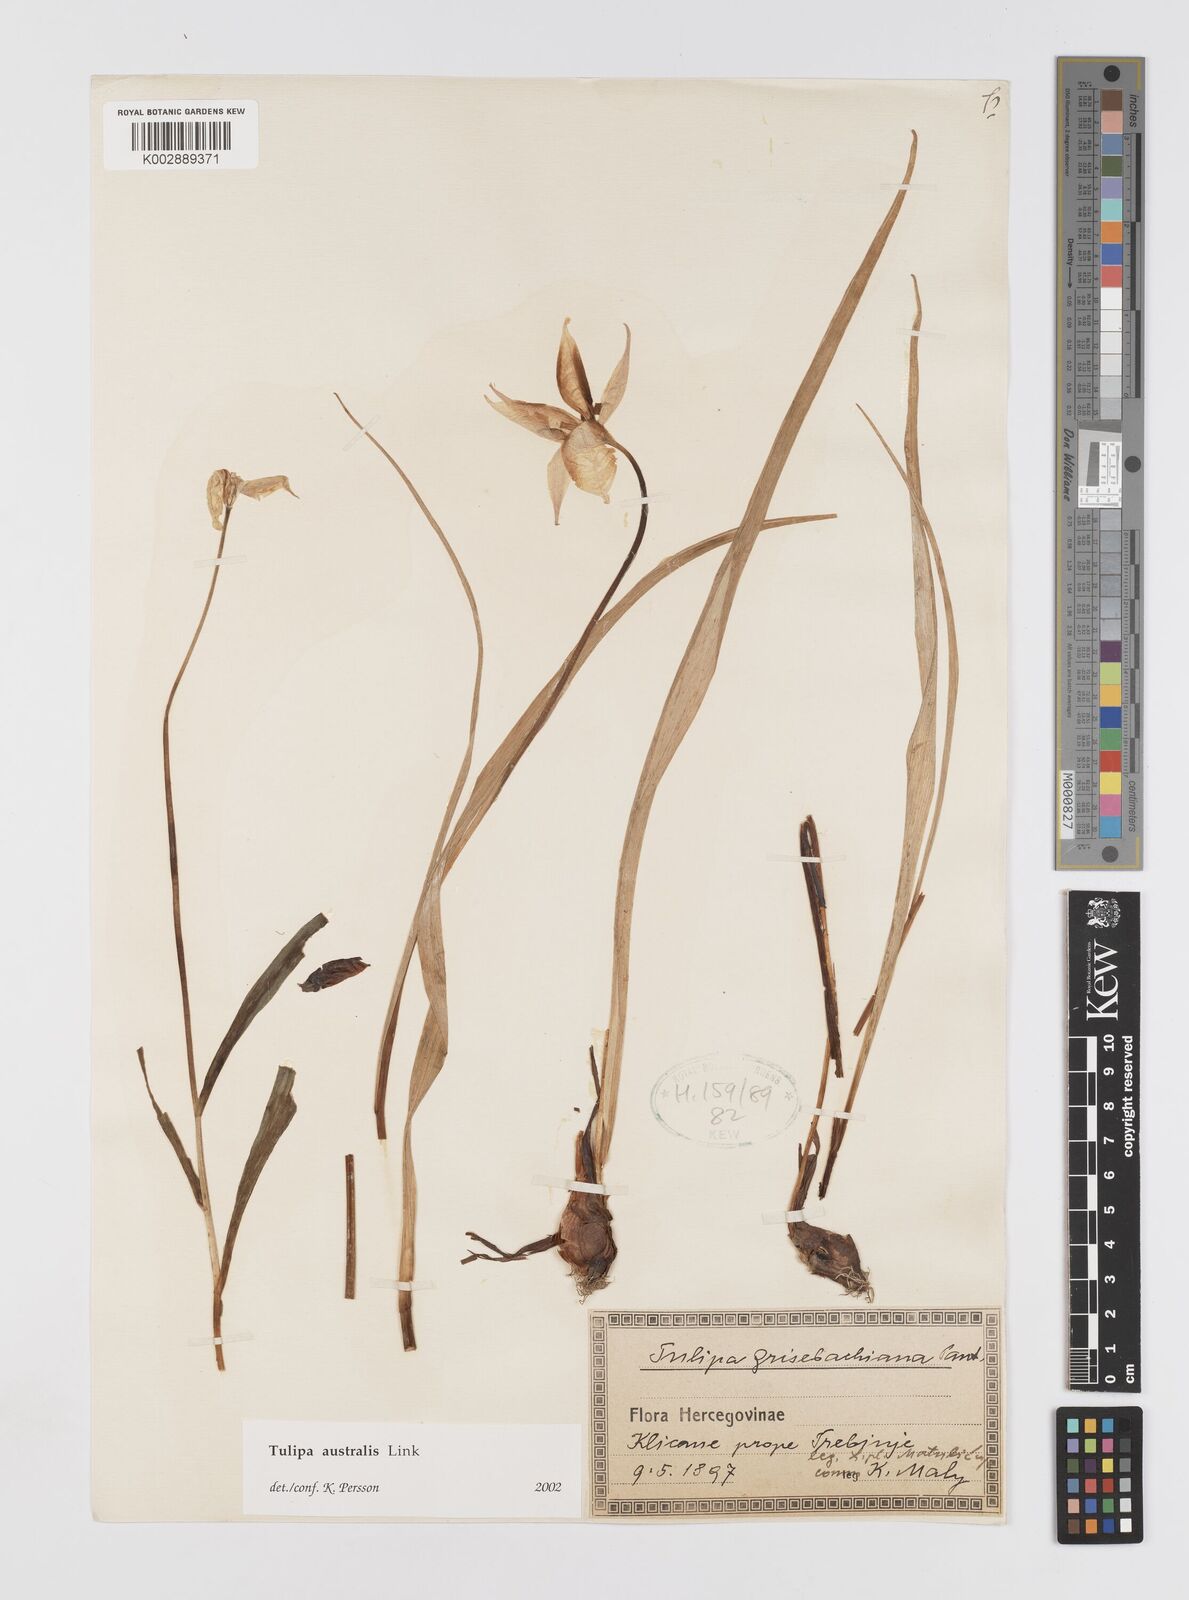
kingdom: Plantae
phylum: Tracheophyta
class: Liliopsida
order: Liliales
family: Liliaceae
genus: Tulipa
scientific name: Tulipa sylvestris
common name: Wild tulip
